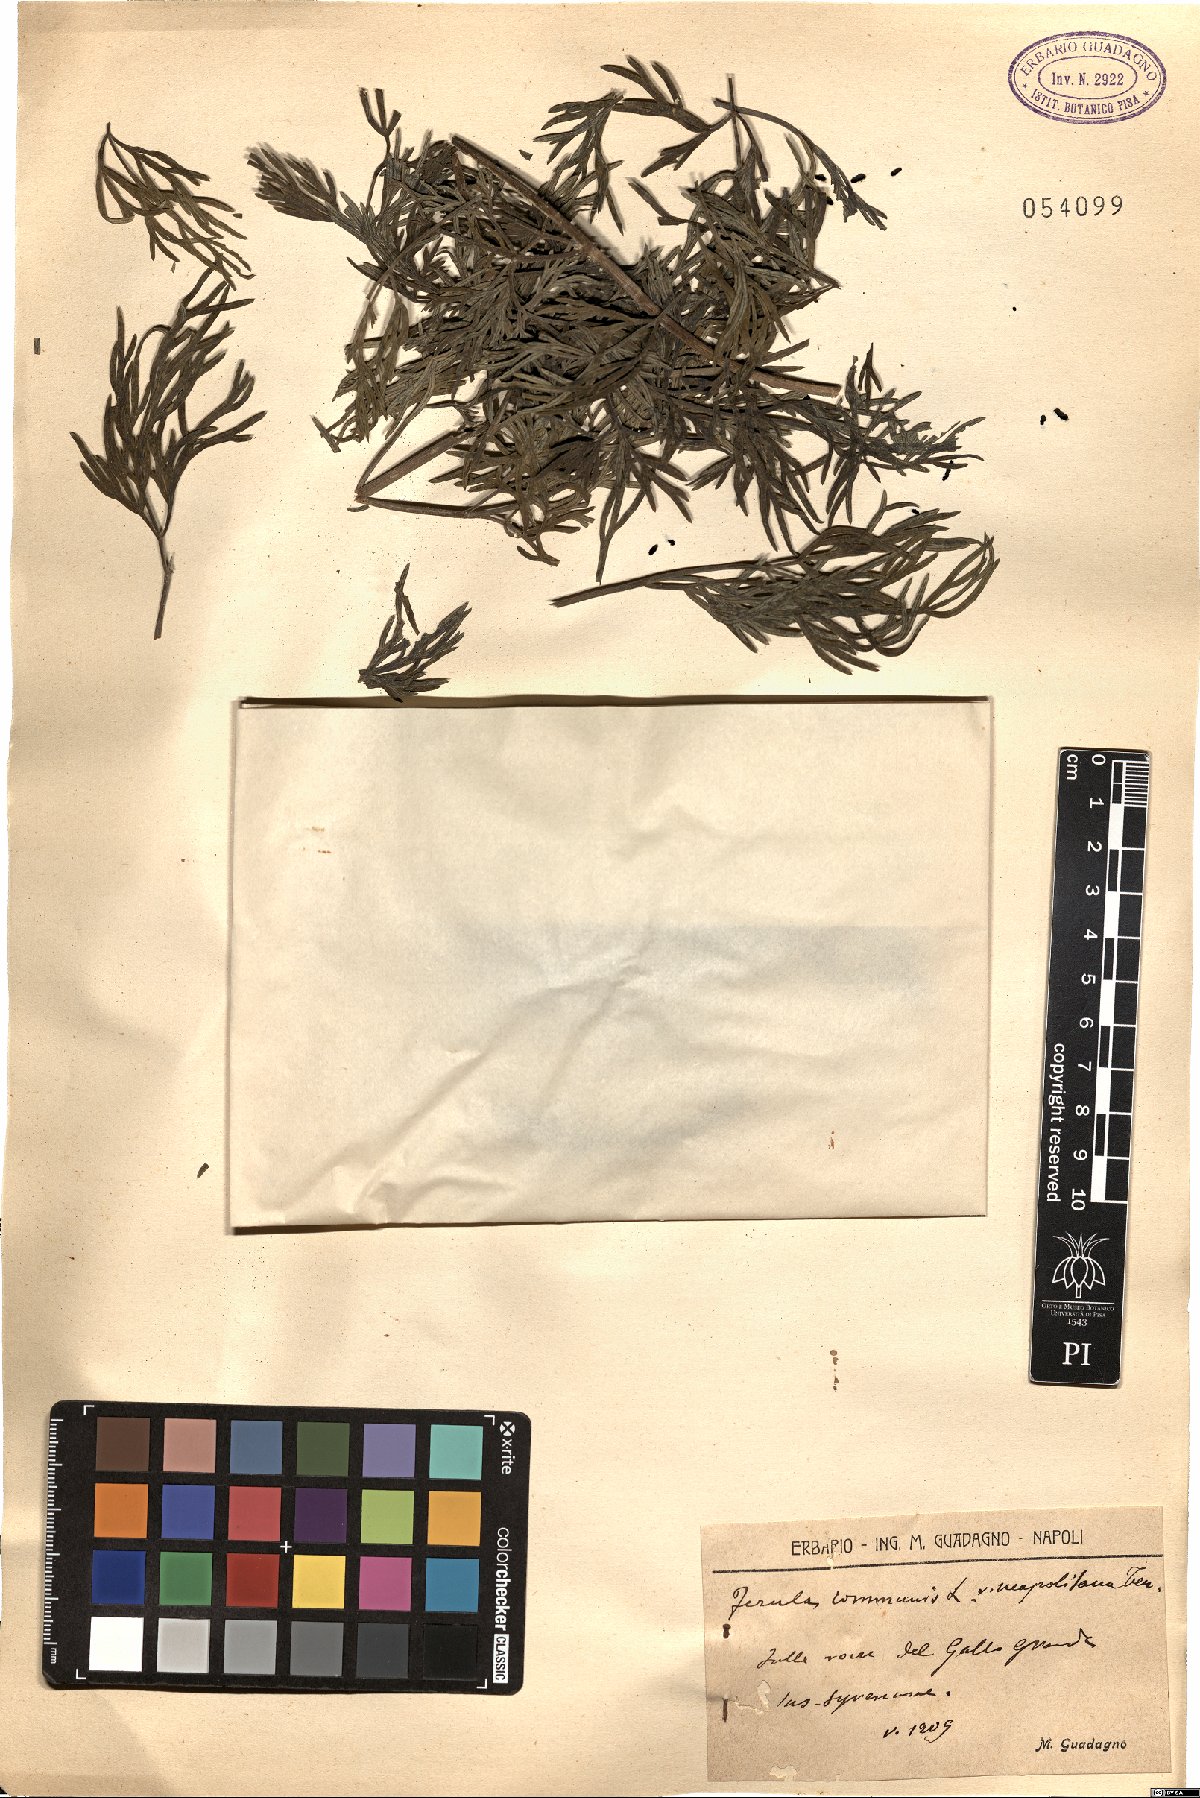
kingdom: Plantae
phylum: Tracheophyta
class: Magnoliopsida
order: Apiales
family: Apiaceae
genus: Ferula
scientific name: Ferula communis
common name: Giant fennel
